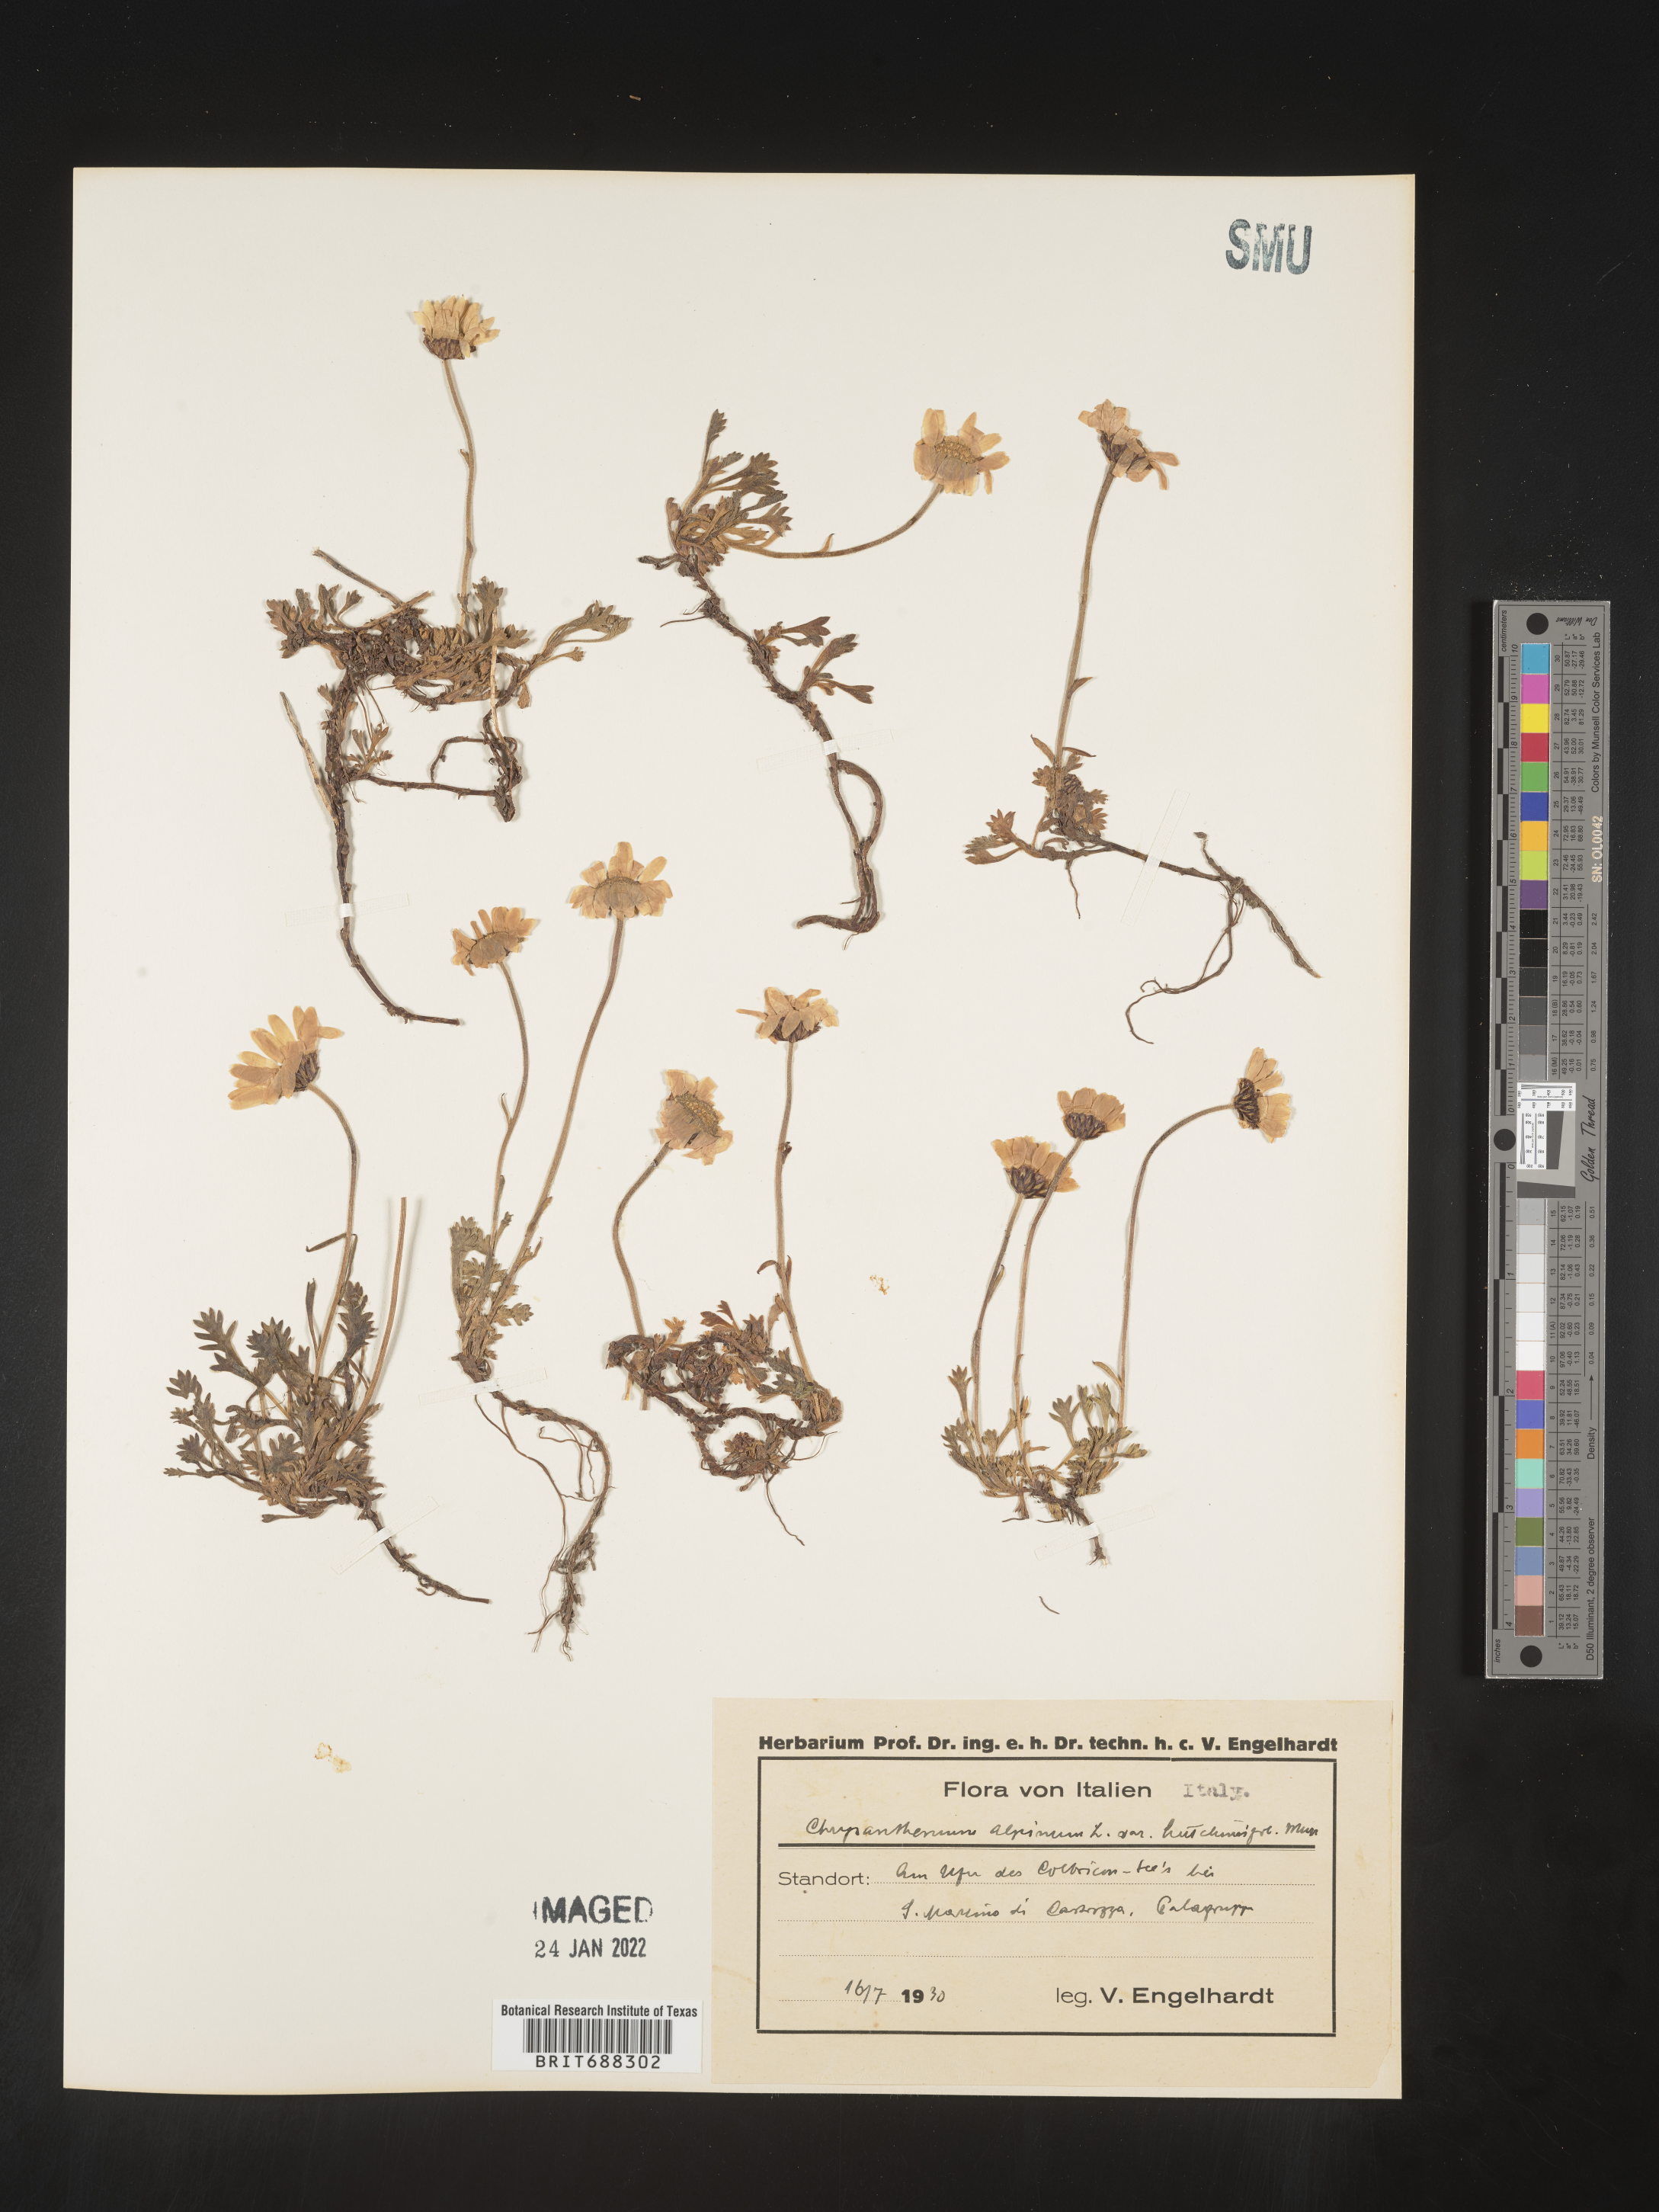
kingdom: Plantae
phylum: Tracheophyta
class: Magnoliopsida
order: Asterales
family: Asteraceae
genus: Chrysanthemum
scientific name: Chrysanthemum
